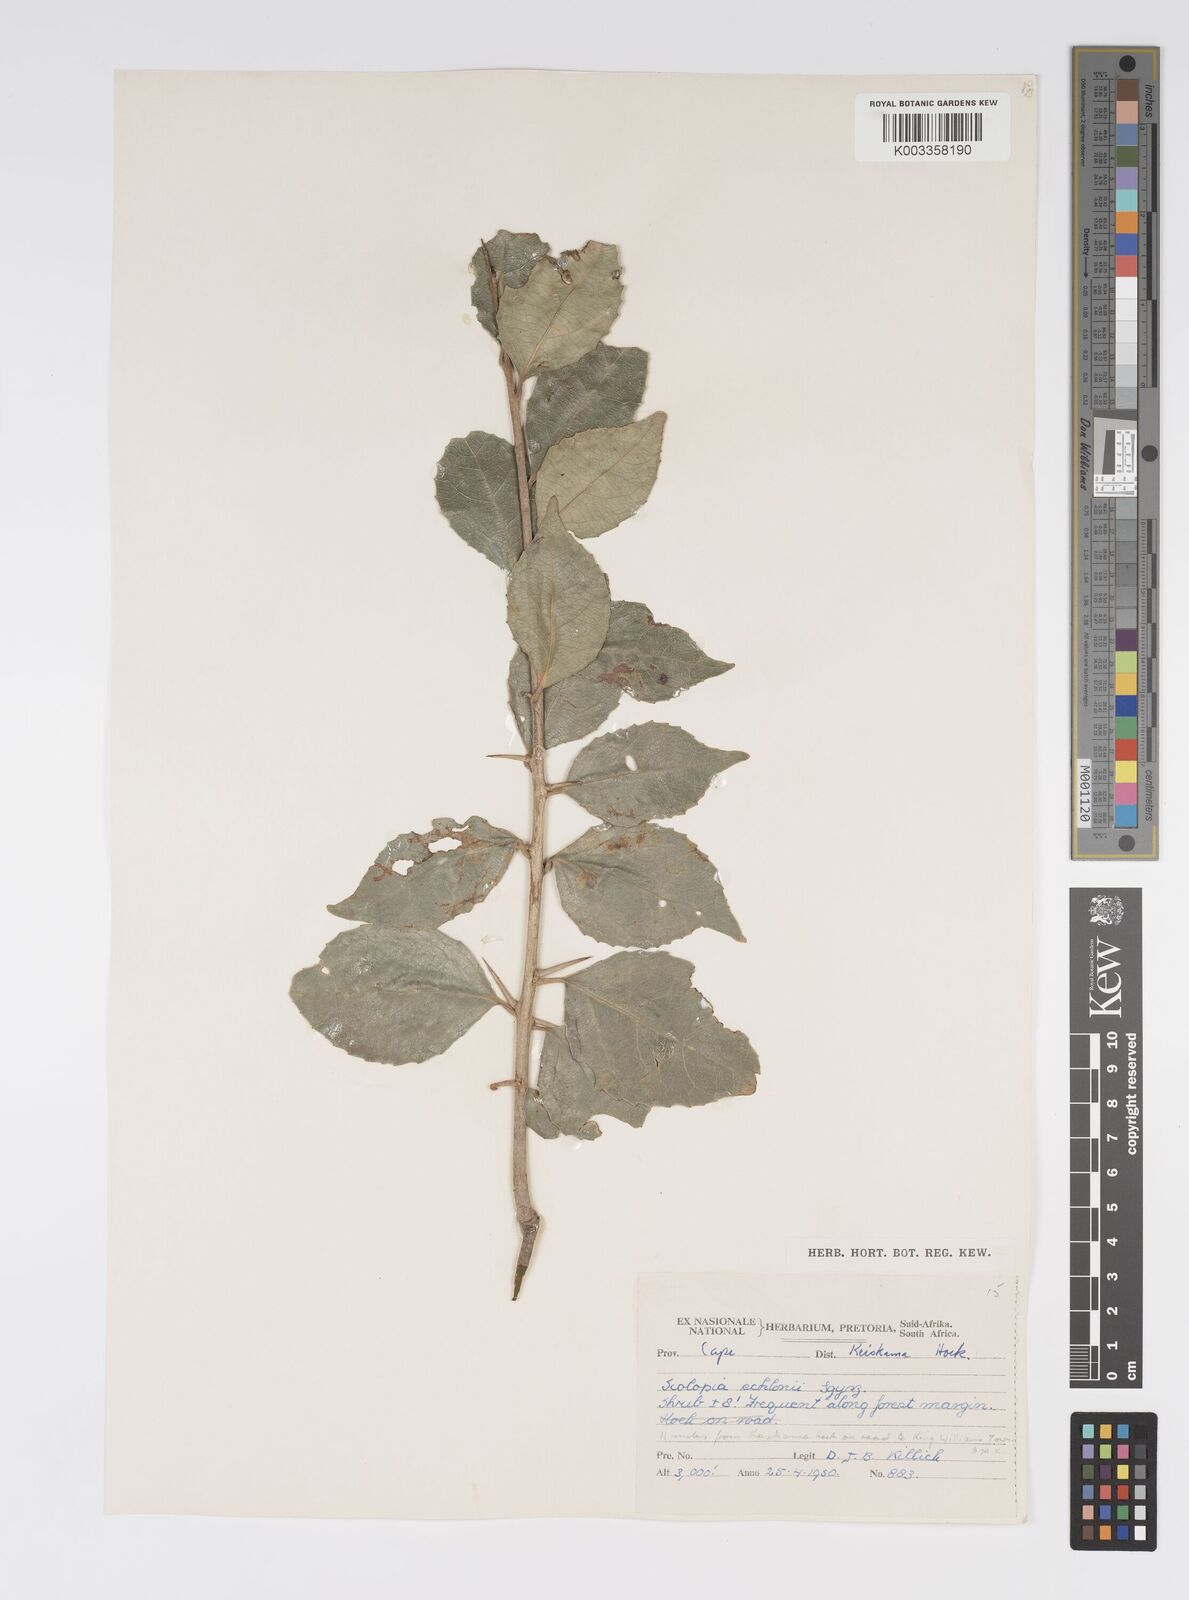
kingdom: Plantae
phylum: Tracheophyta
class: Magnoliopsida
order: Malpighiales
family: Salicaceae
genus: Scolopia
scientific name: Scolopia zeyheri
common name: Thorn pear
